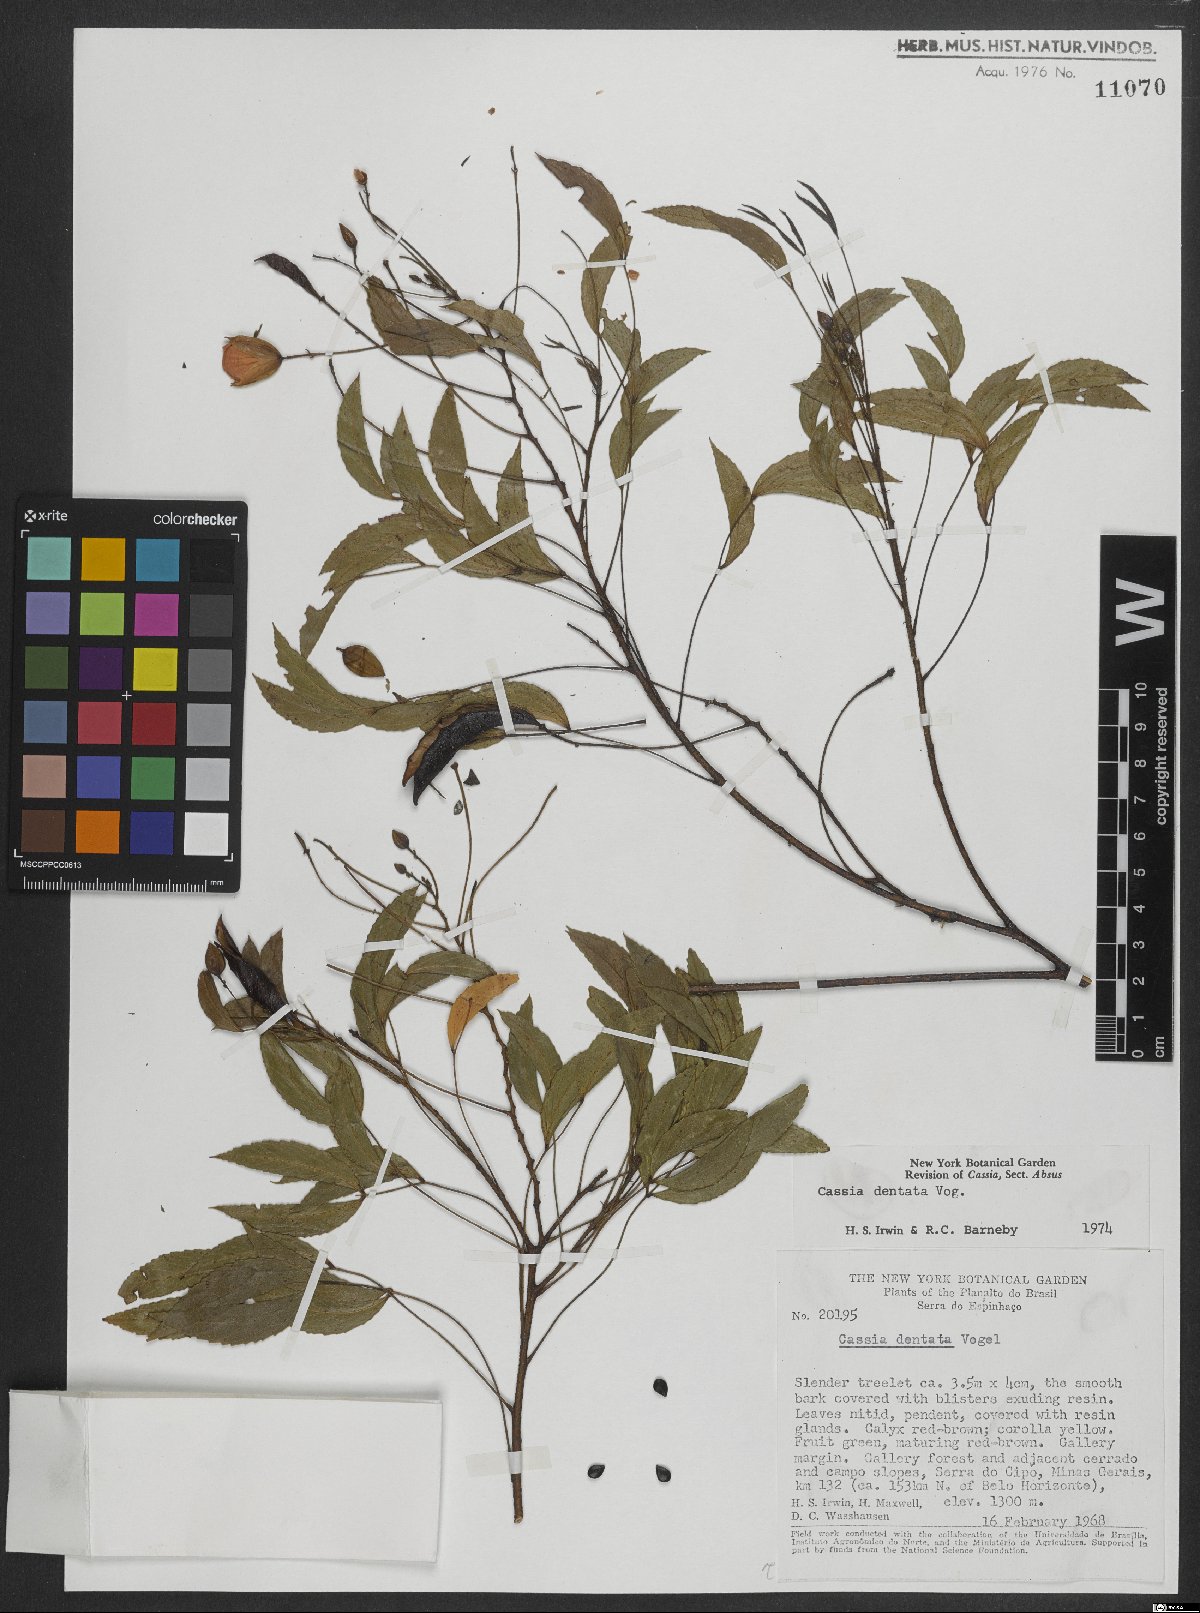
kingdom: Plantae
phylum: Tracheophyta
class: Magnoliopsida
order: Fabales
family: Fabaceae
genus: Chamaecrista
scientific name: Chamaecrista dentata
